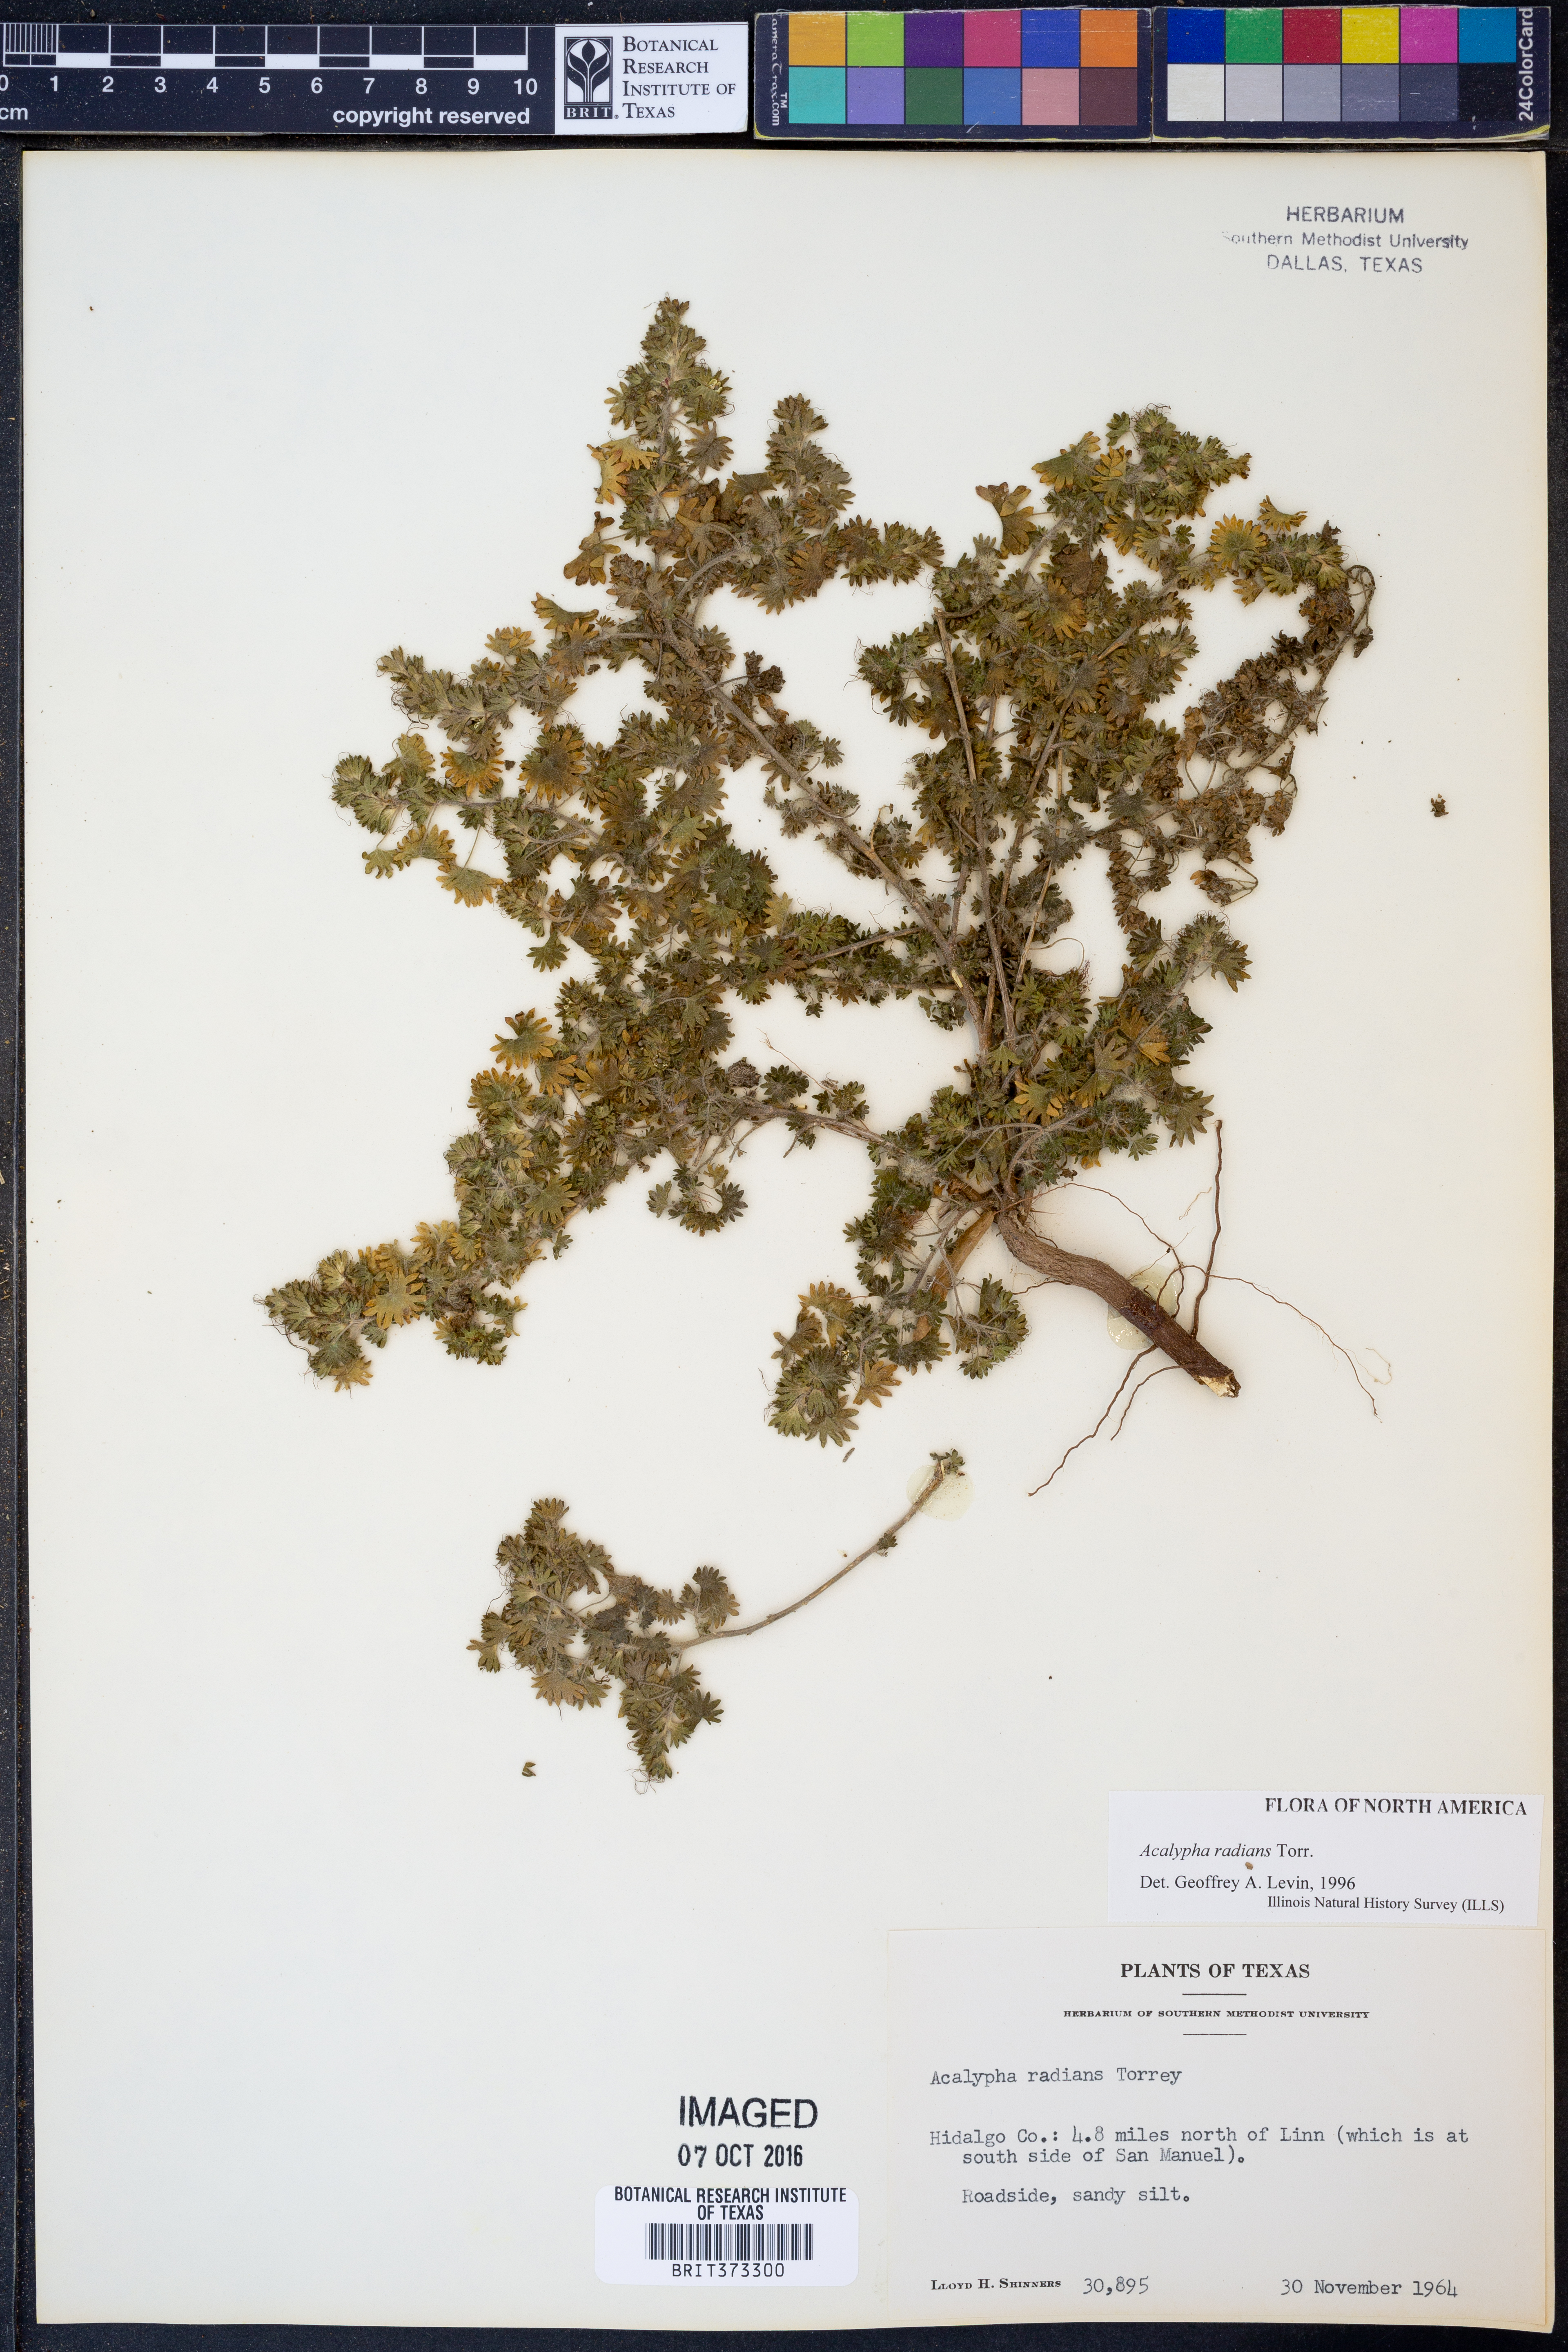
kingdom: Plantae
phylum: Tracheophyta
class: Magnoliopsida
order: Malpighiales
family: Euphorbiaceae
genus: Acalypha
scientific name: Acalypha radians
